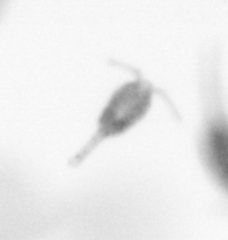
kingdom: Animalia
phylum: Arthropoda
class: Copepoda
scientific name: Copepoda
